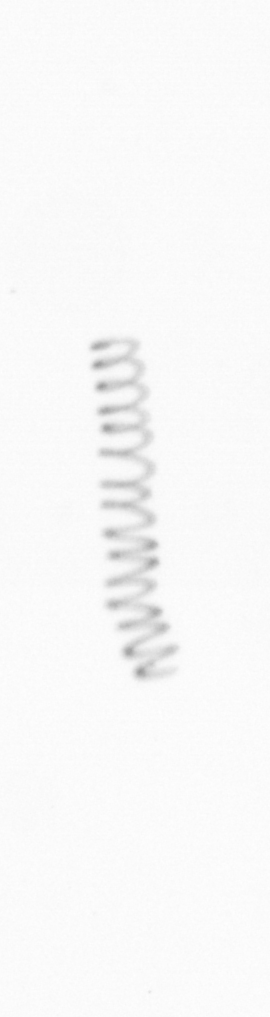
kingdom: Chromista
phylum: Ochrophyta
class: Bacillariophyceae
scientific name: Bacillariophyceae
